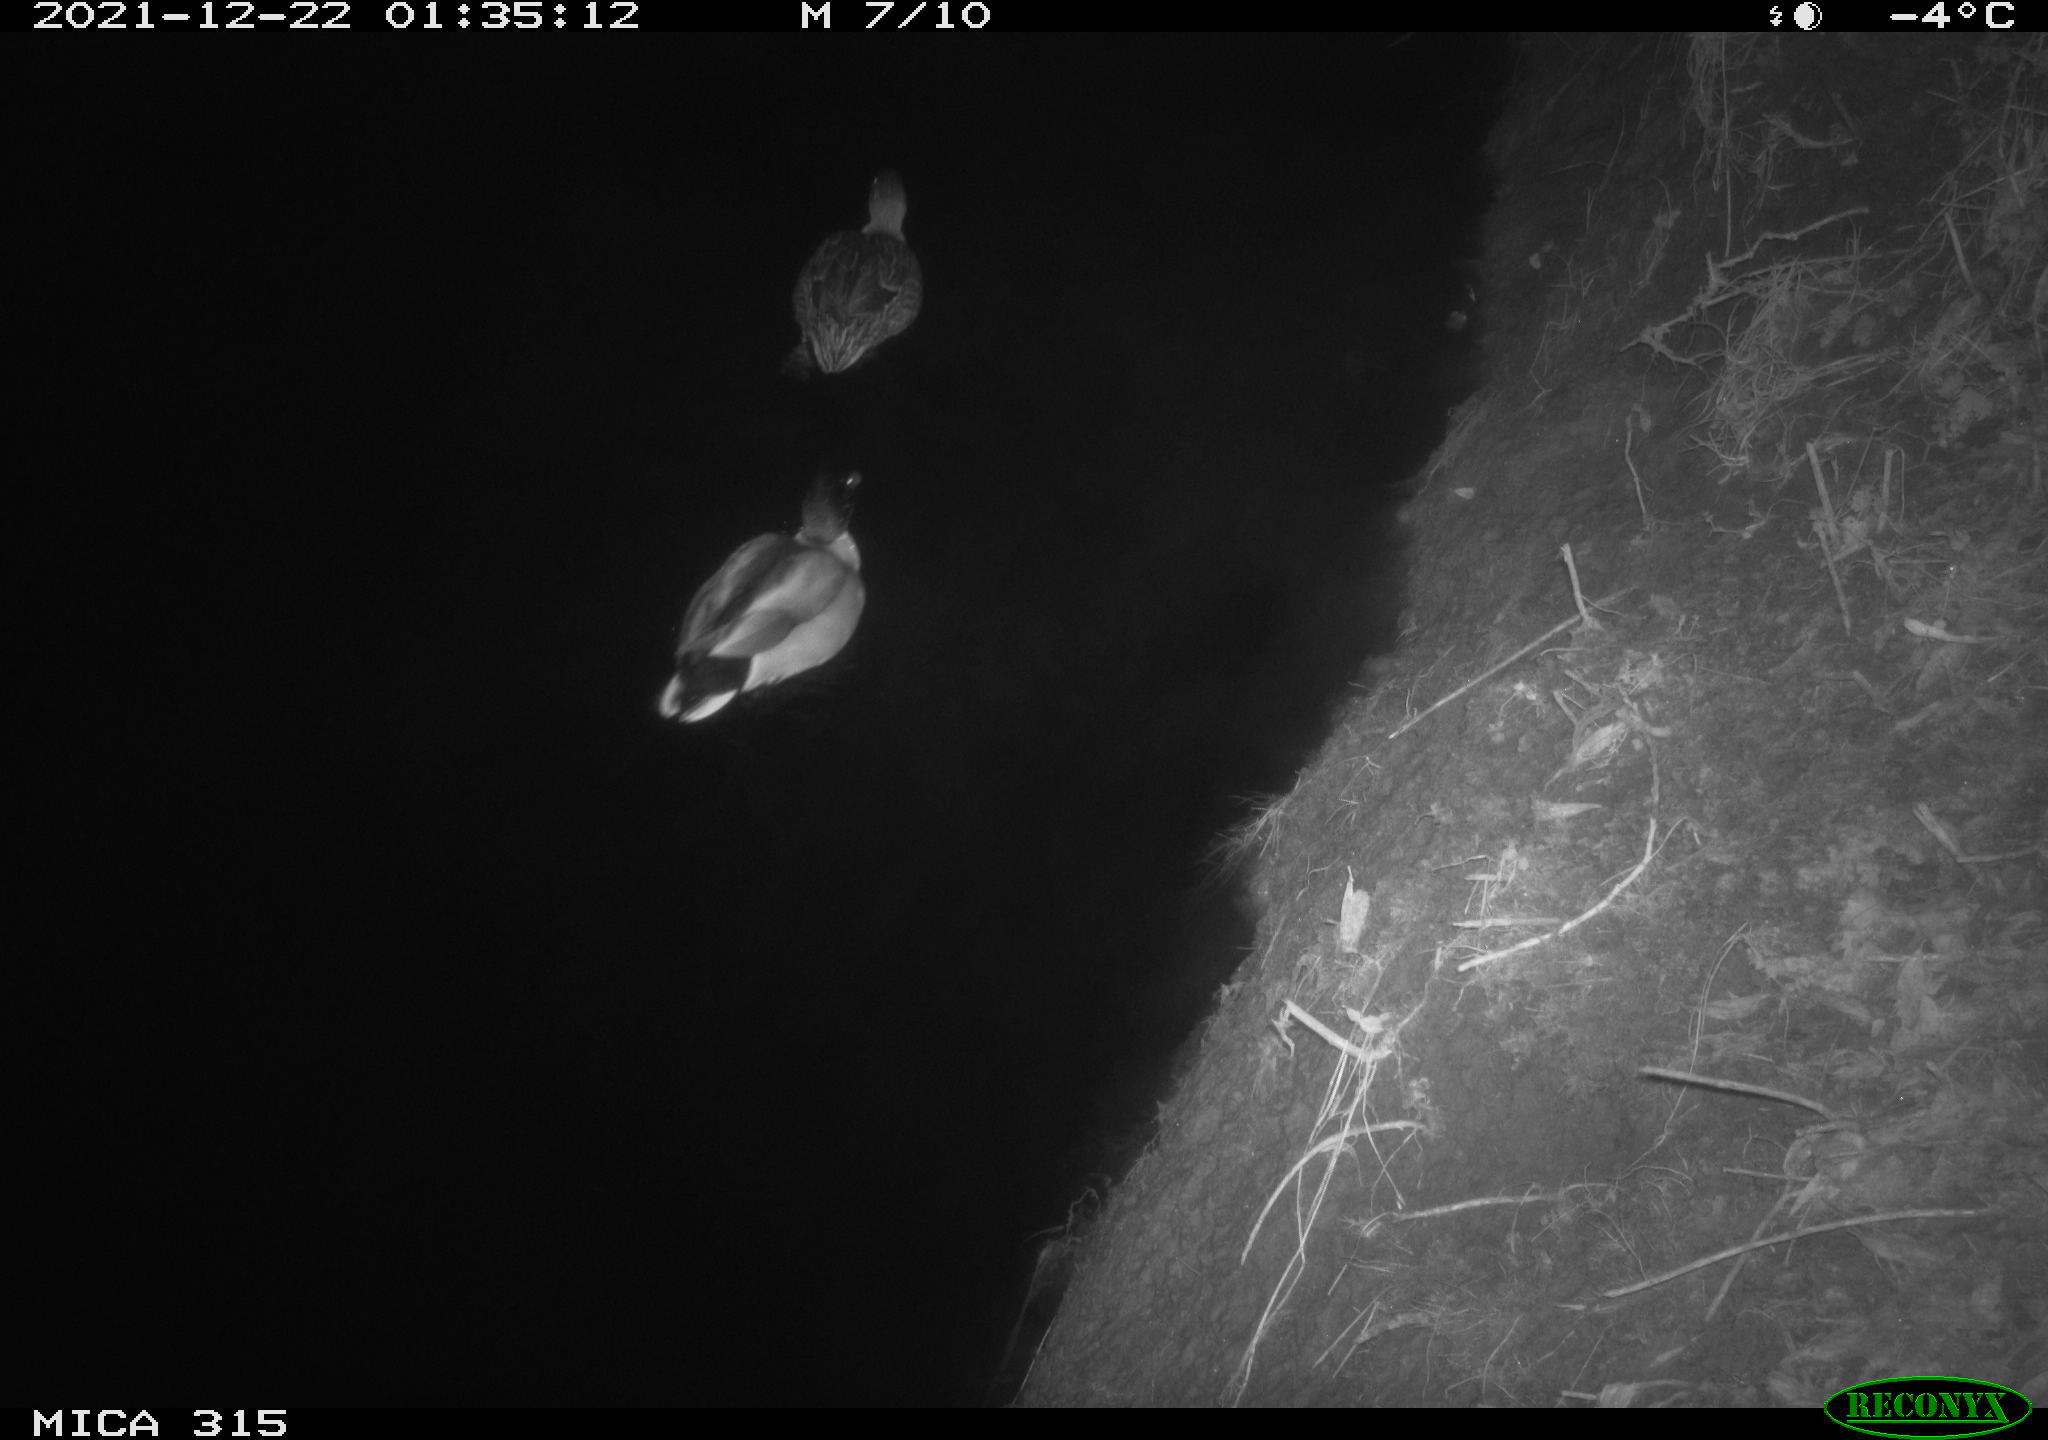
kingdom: Animalia
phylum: Chordata
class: Aves
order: Anseriformes
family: Anatidae
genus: Anas
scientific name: Anas
